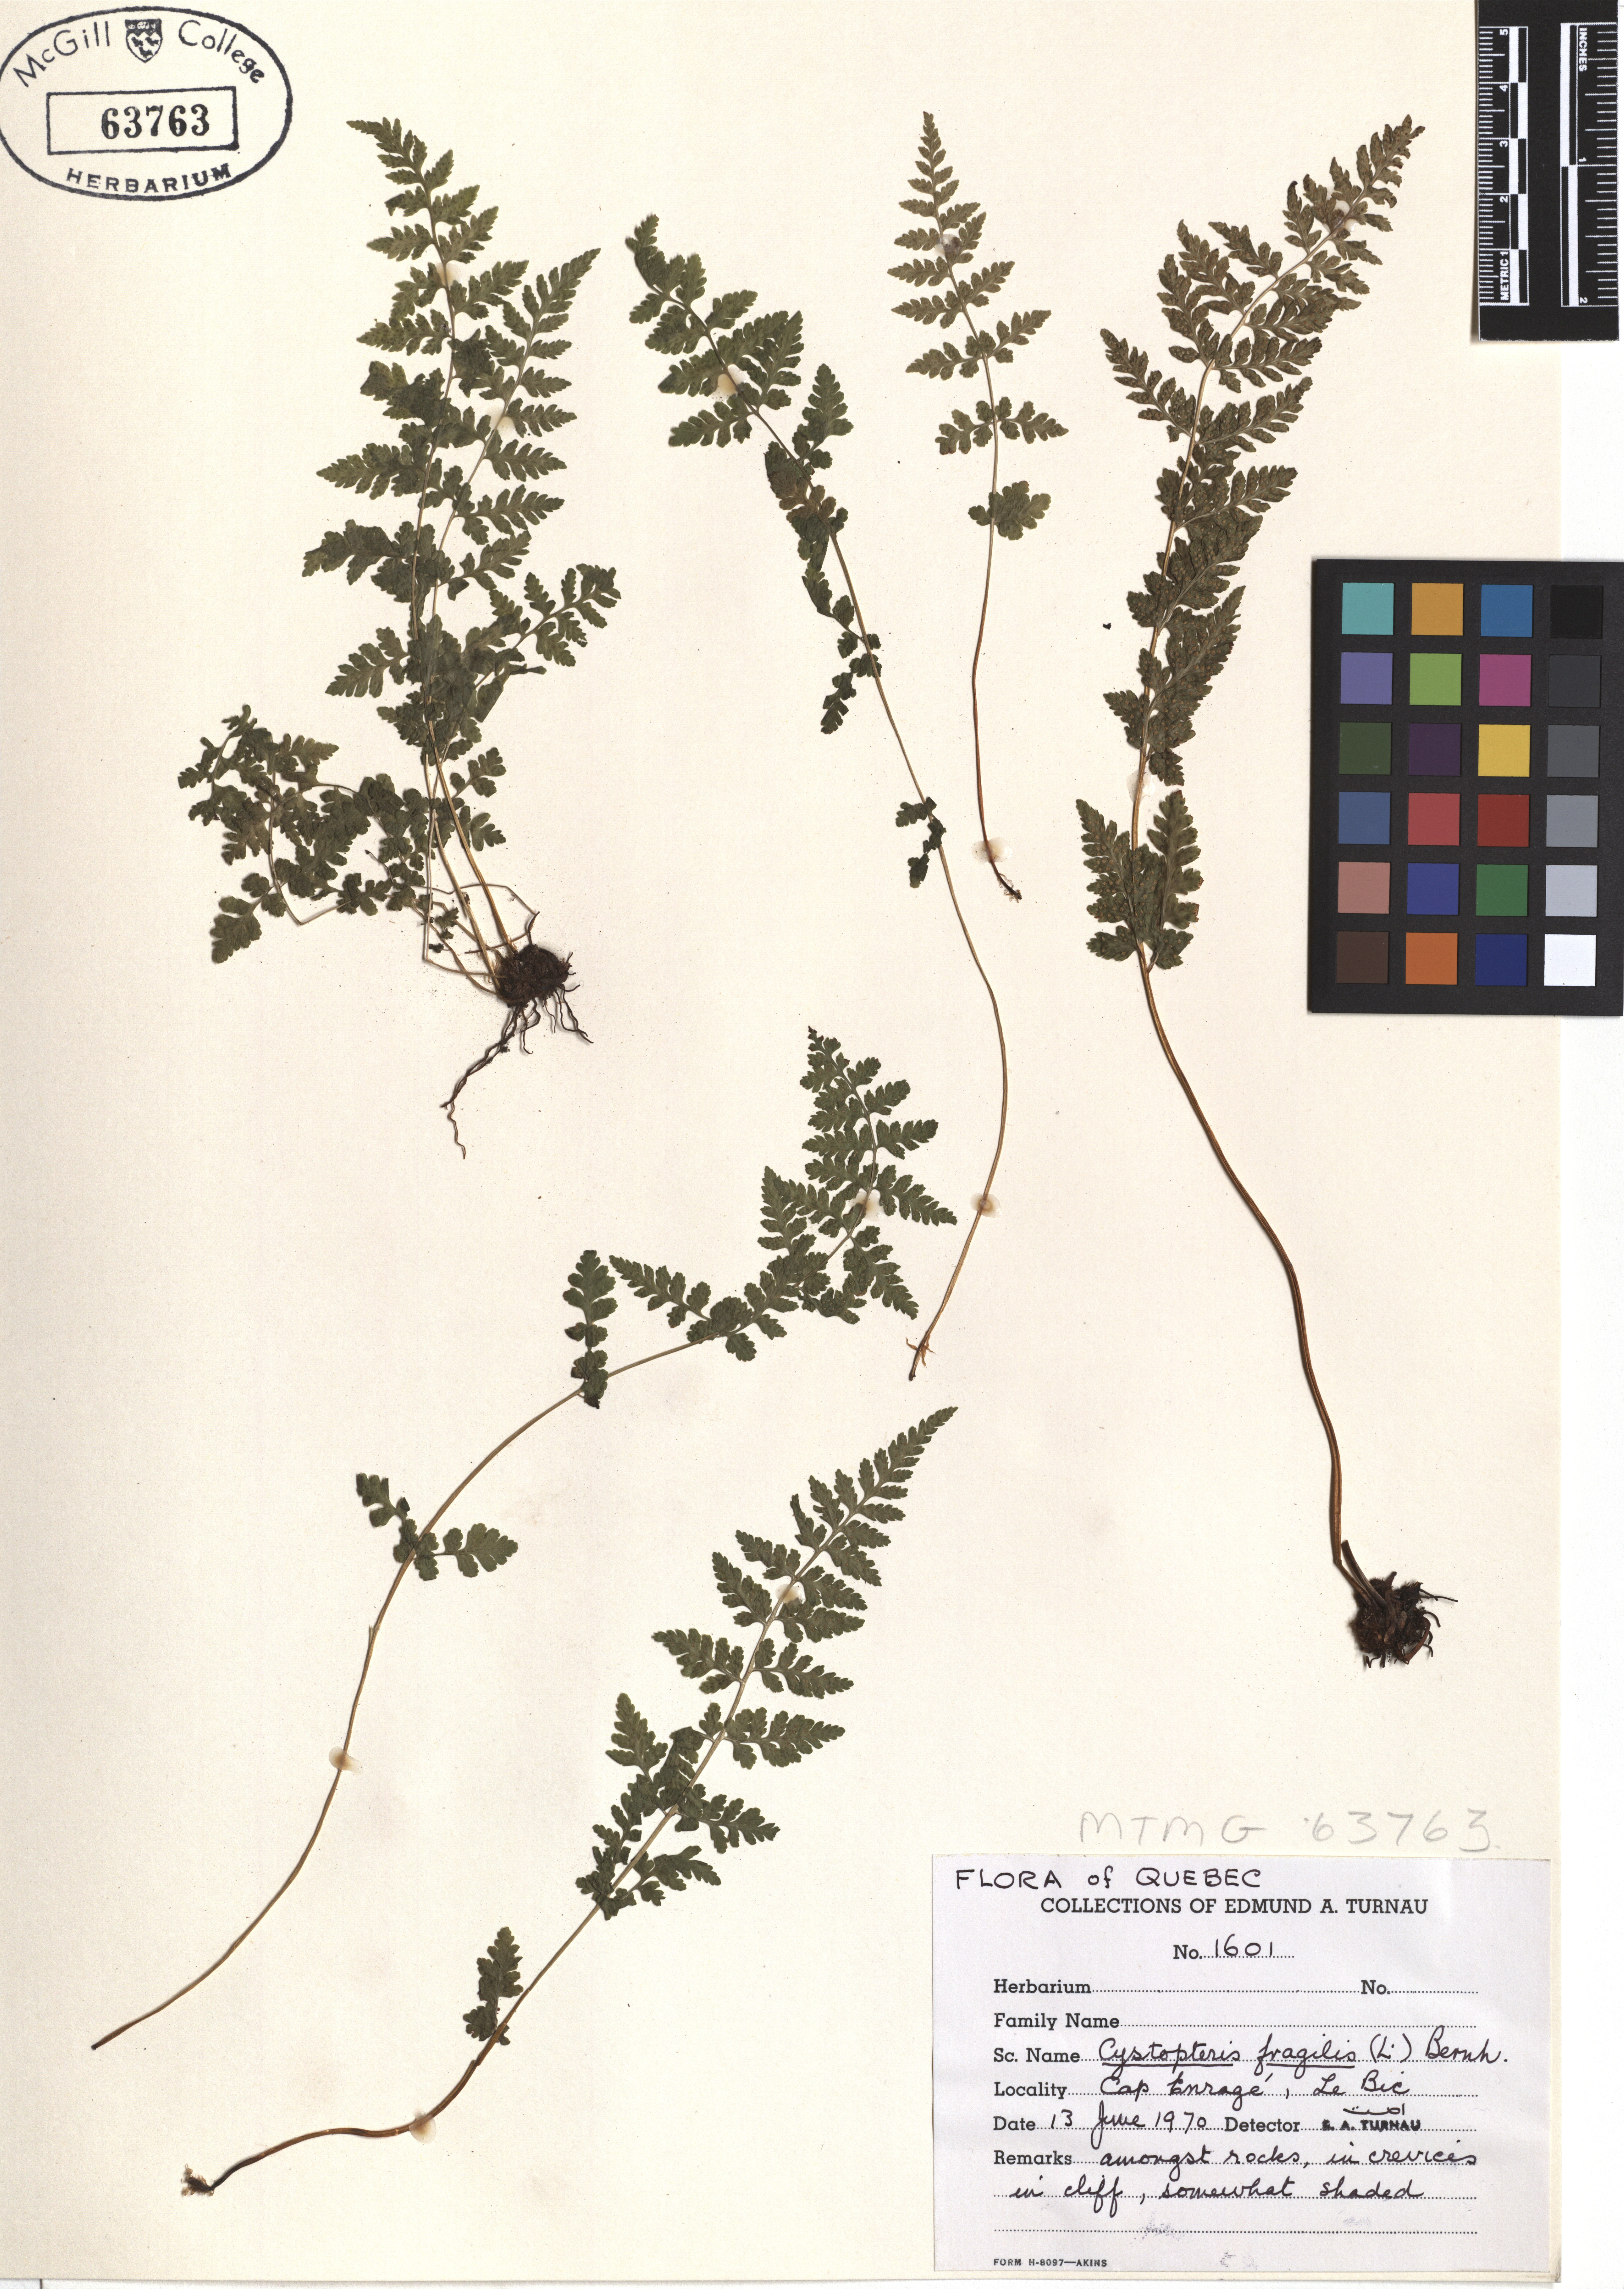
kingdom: Plantae
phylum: Tracheophyta
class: Polypodiopsida
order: Polypodiales
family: Cystopteridaceae
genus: Cystopteris
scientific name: Cystopteris fragilis
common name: Brittle bladder fern
